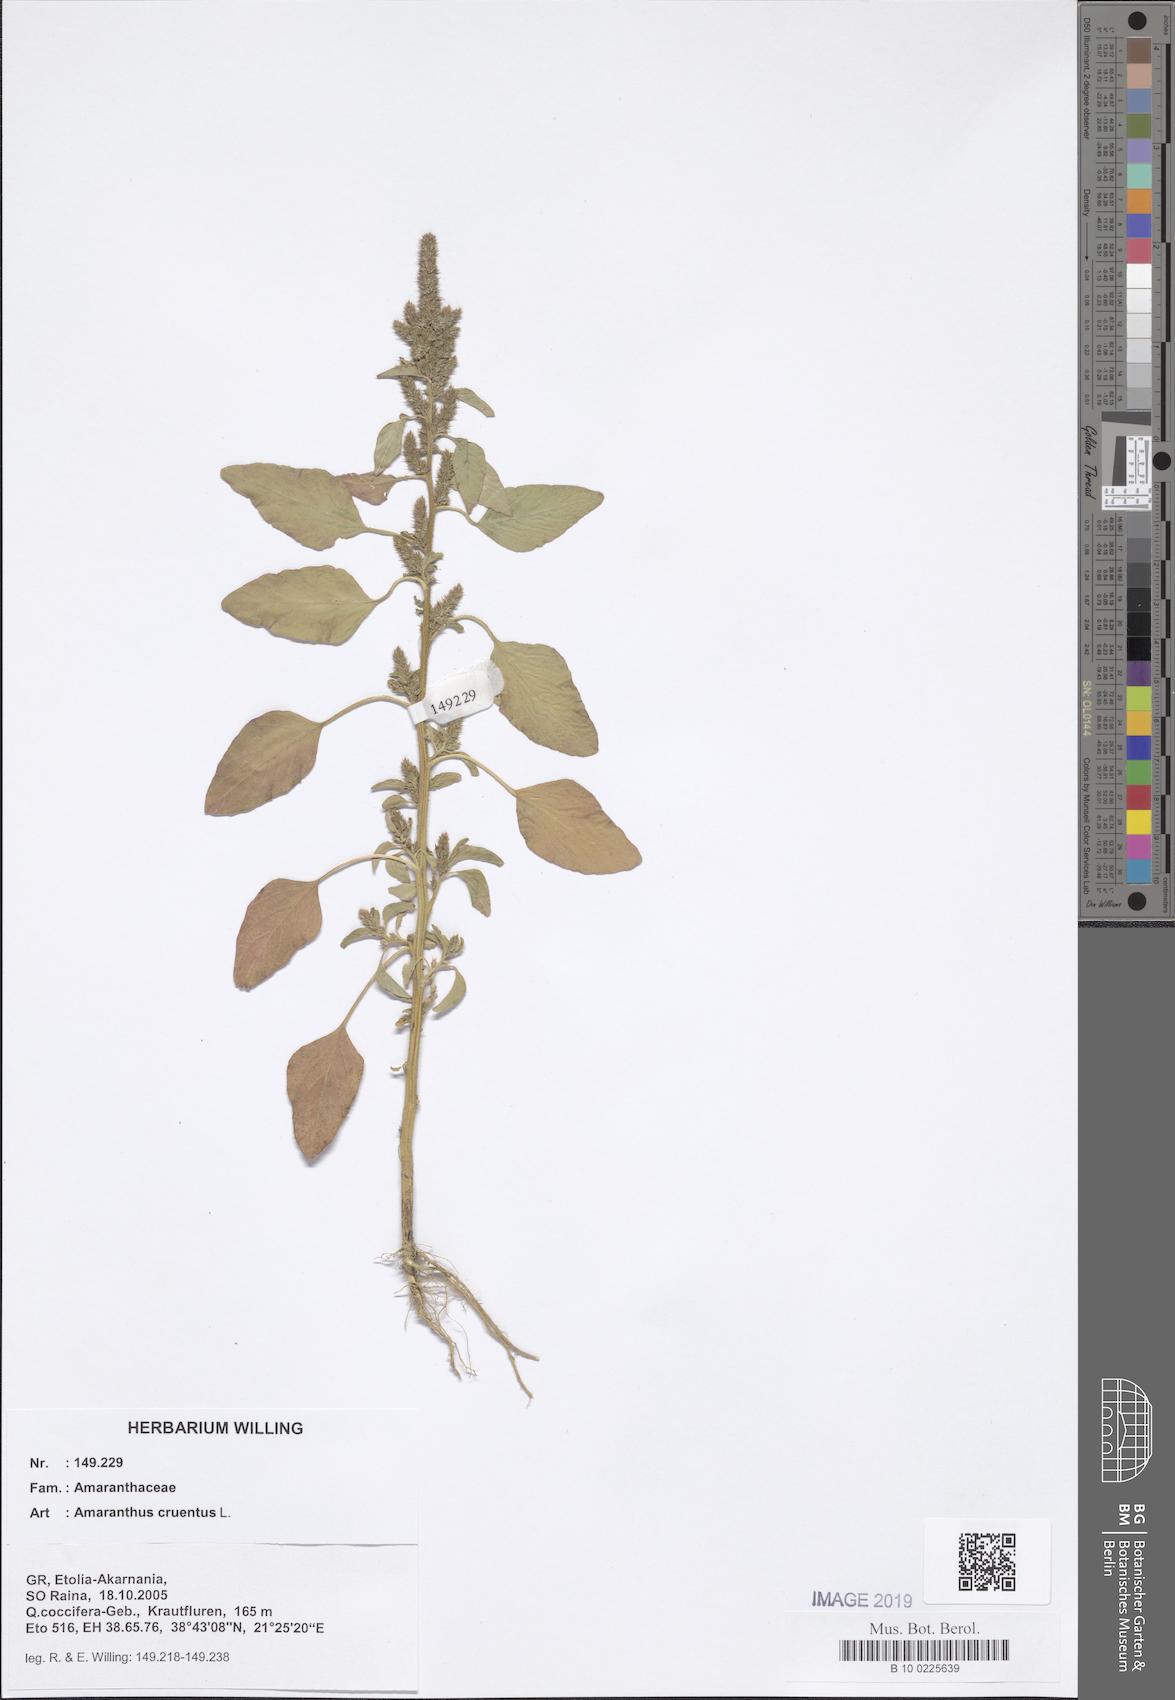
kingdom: Plantae
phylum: Tracheophyta
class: Magnoliopsida
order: Caryophyllales
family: Amaranthaceae
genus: Amaranthus
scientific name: Amaranthus cruentus
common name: Purple amaranth
